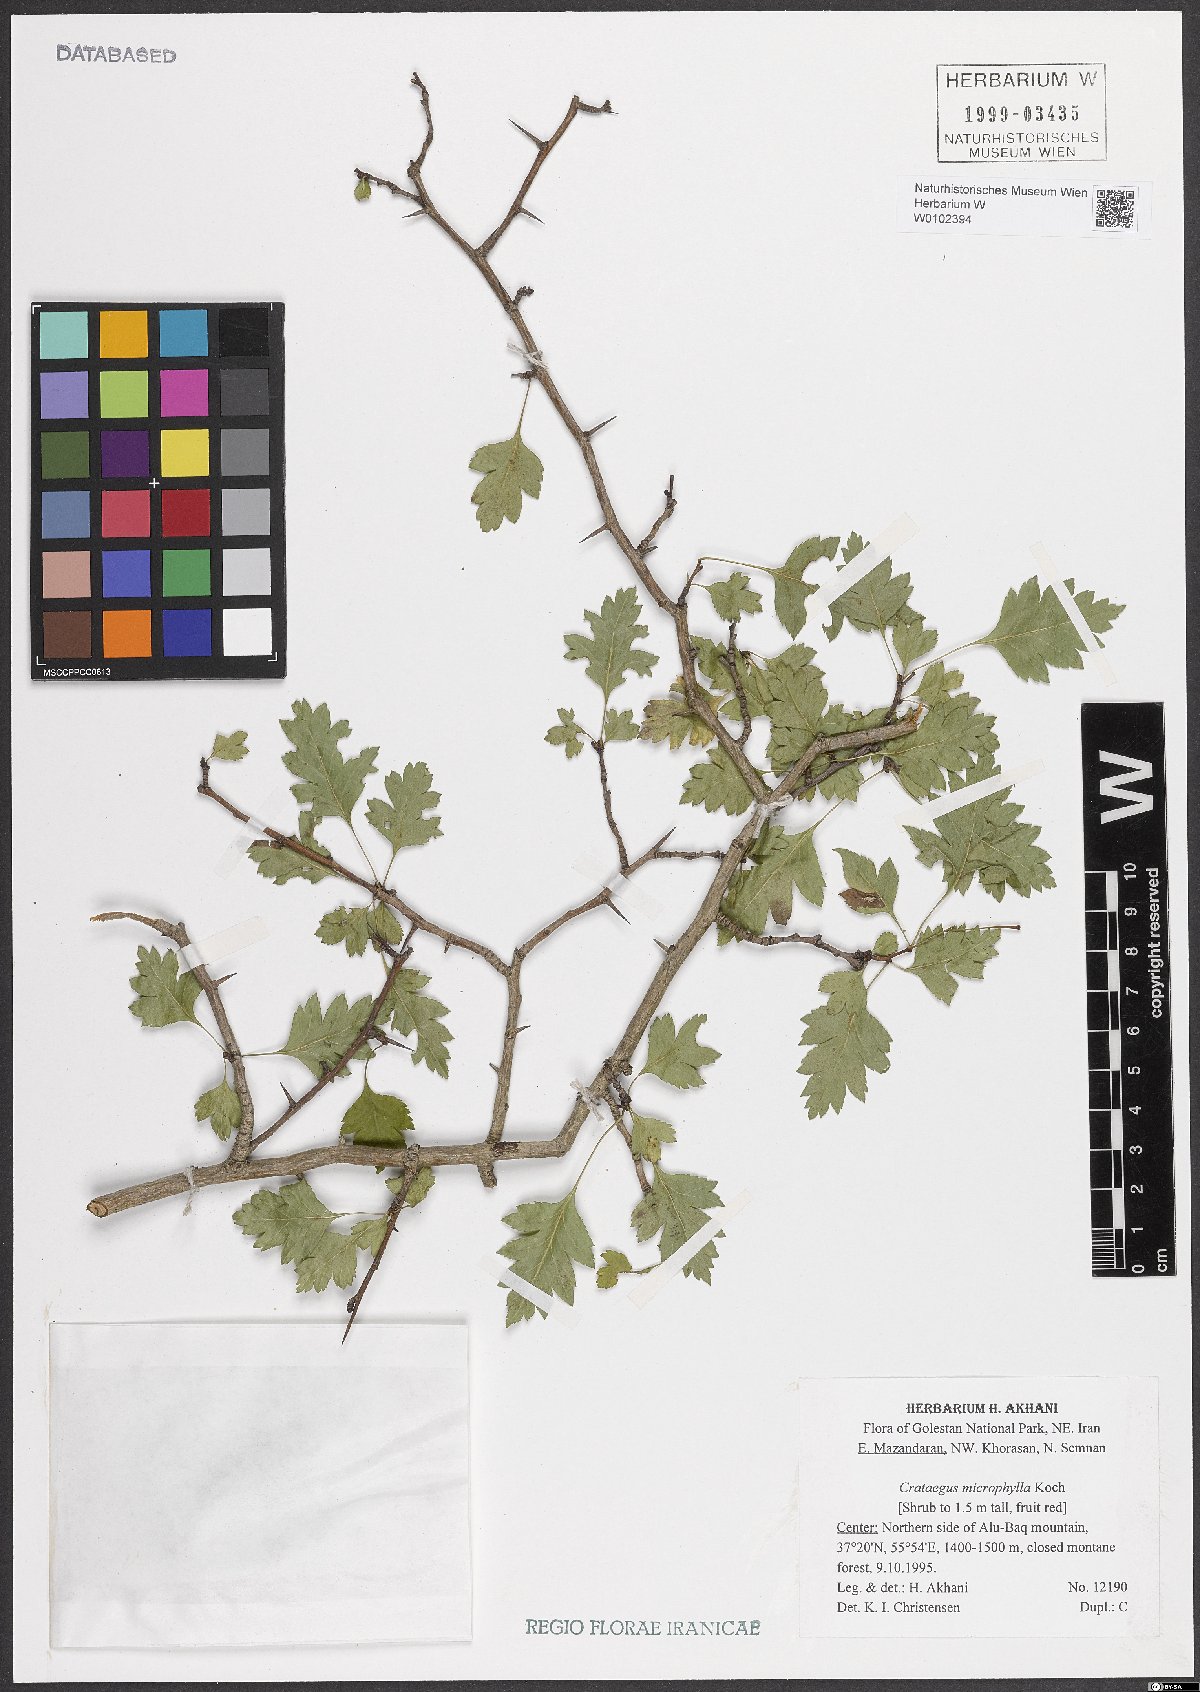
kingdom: Plantae
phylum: Tracheophyta
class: Magnoliopsida
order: Rosales
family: Rosaceae
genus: Crataegus
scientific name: Crataegus microphylla
